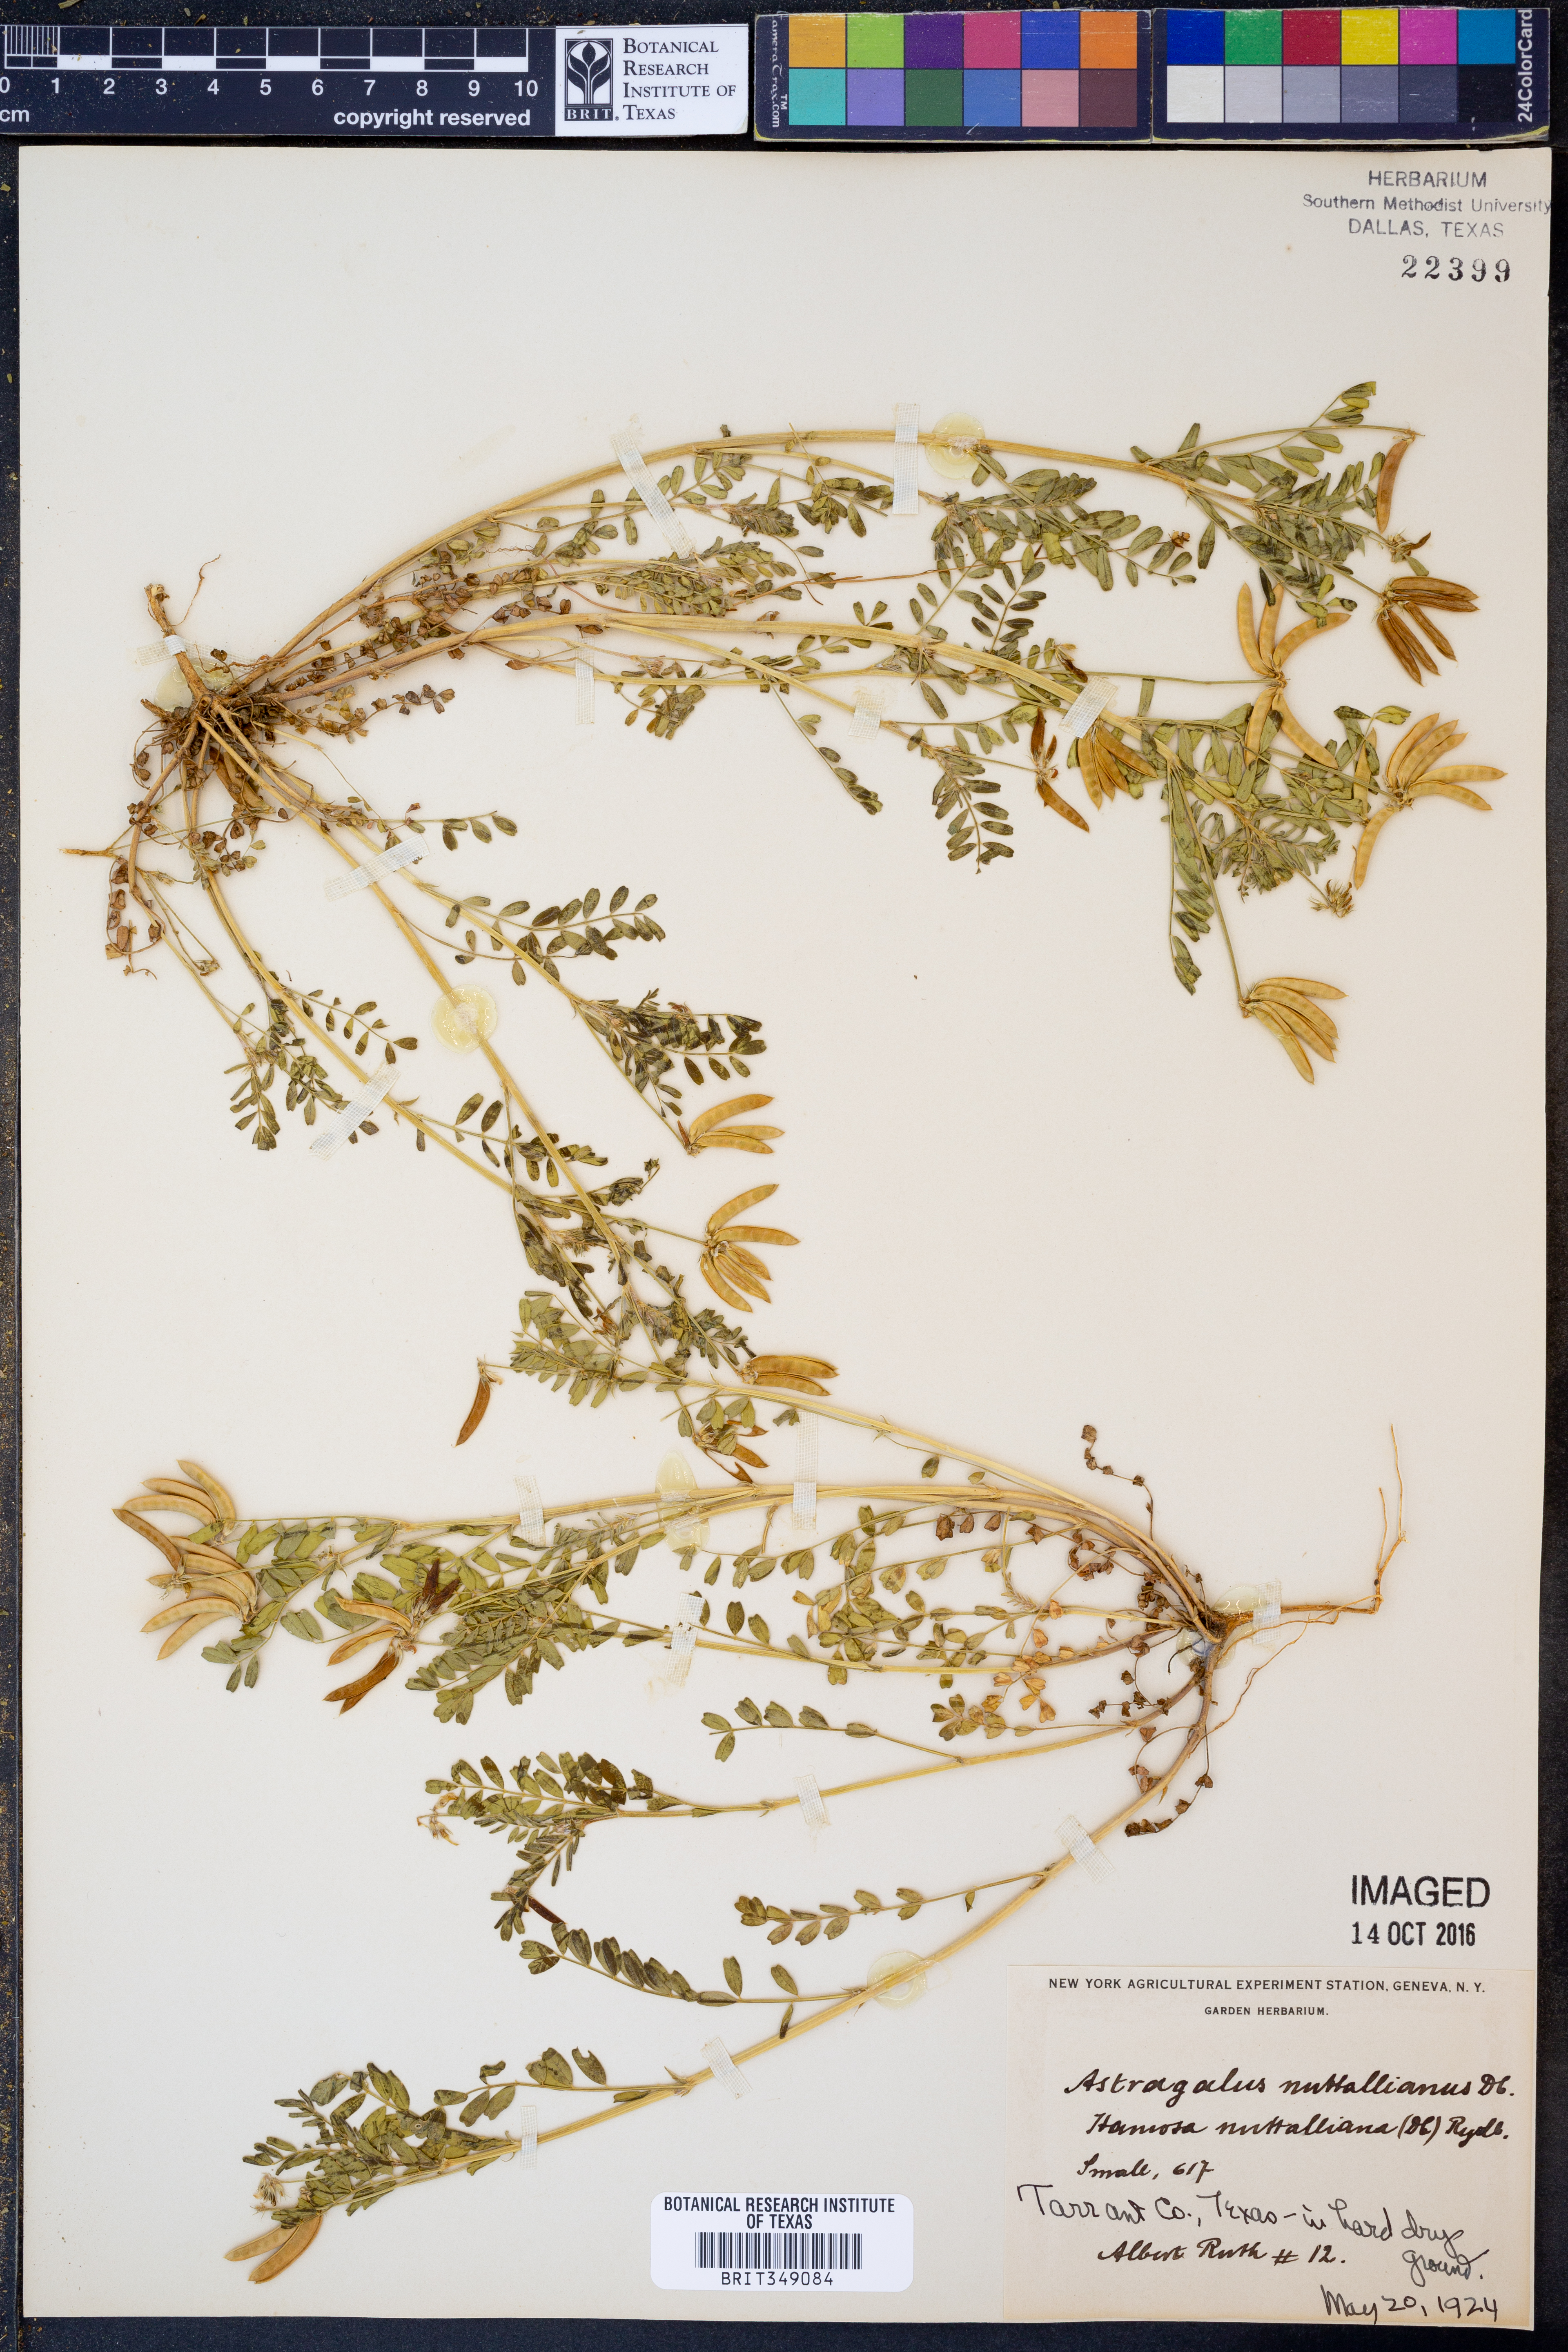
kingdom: Plantae
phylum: Tracheophyta
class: Magnoliopsida
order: Fabales
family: Fabaceae
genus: Astragalus
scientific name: Astragalus nuttallianus
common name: Smallflowered milkvetch
